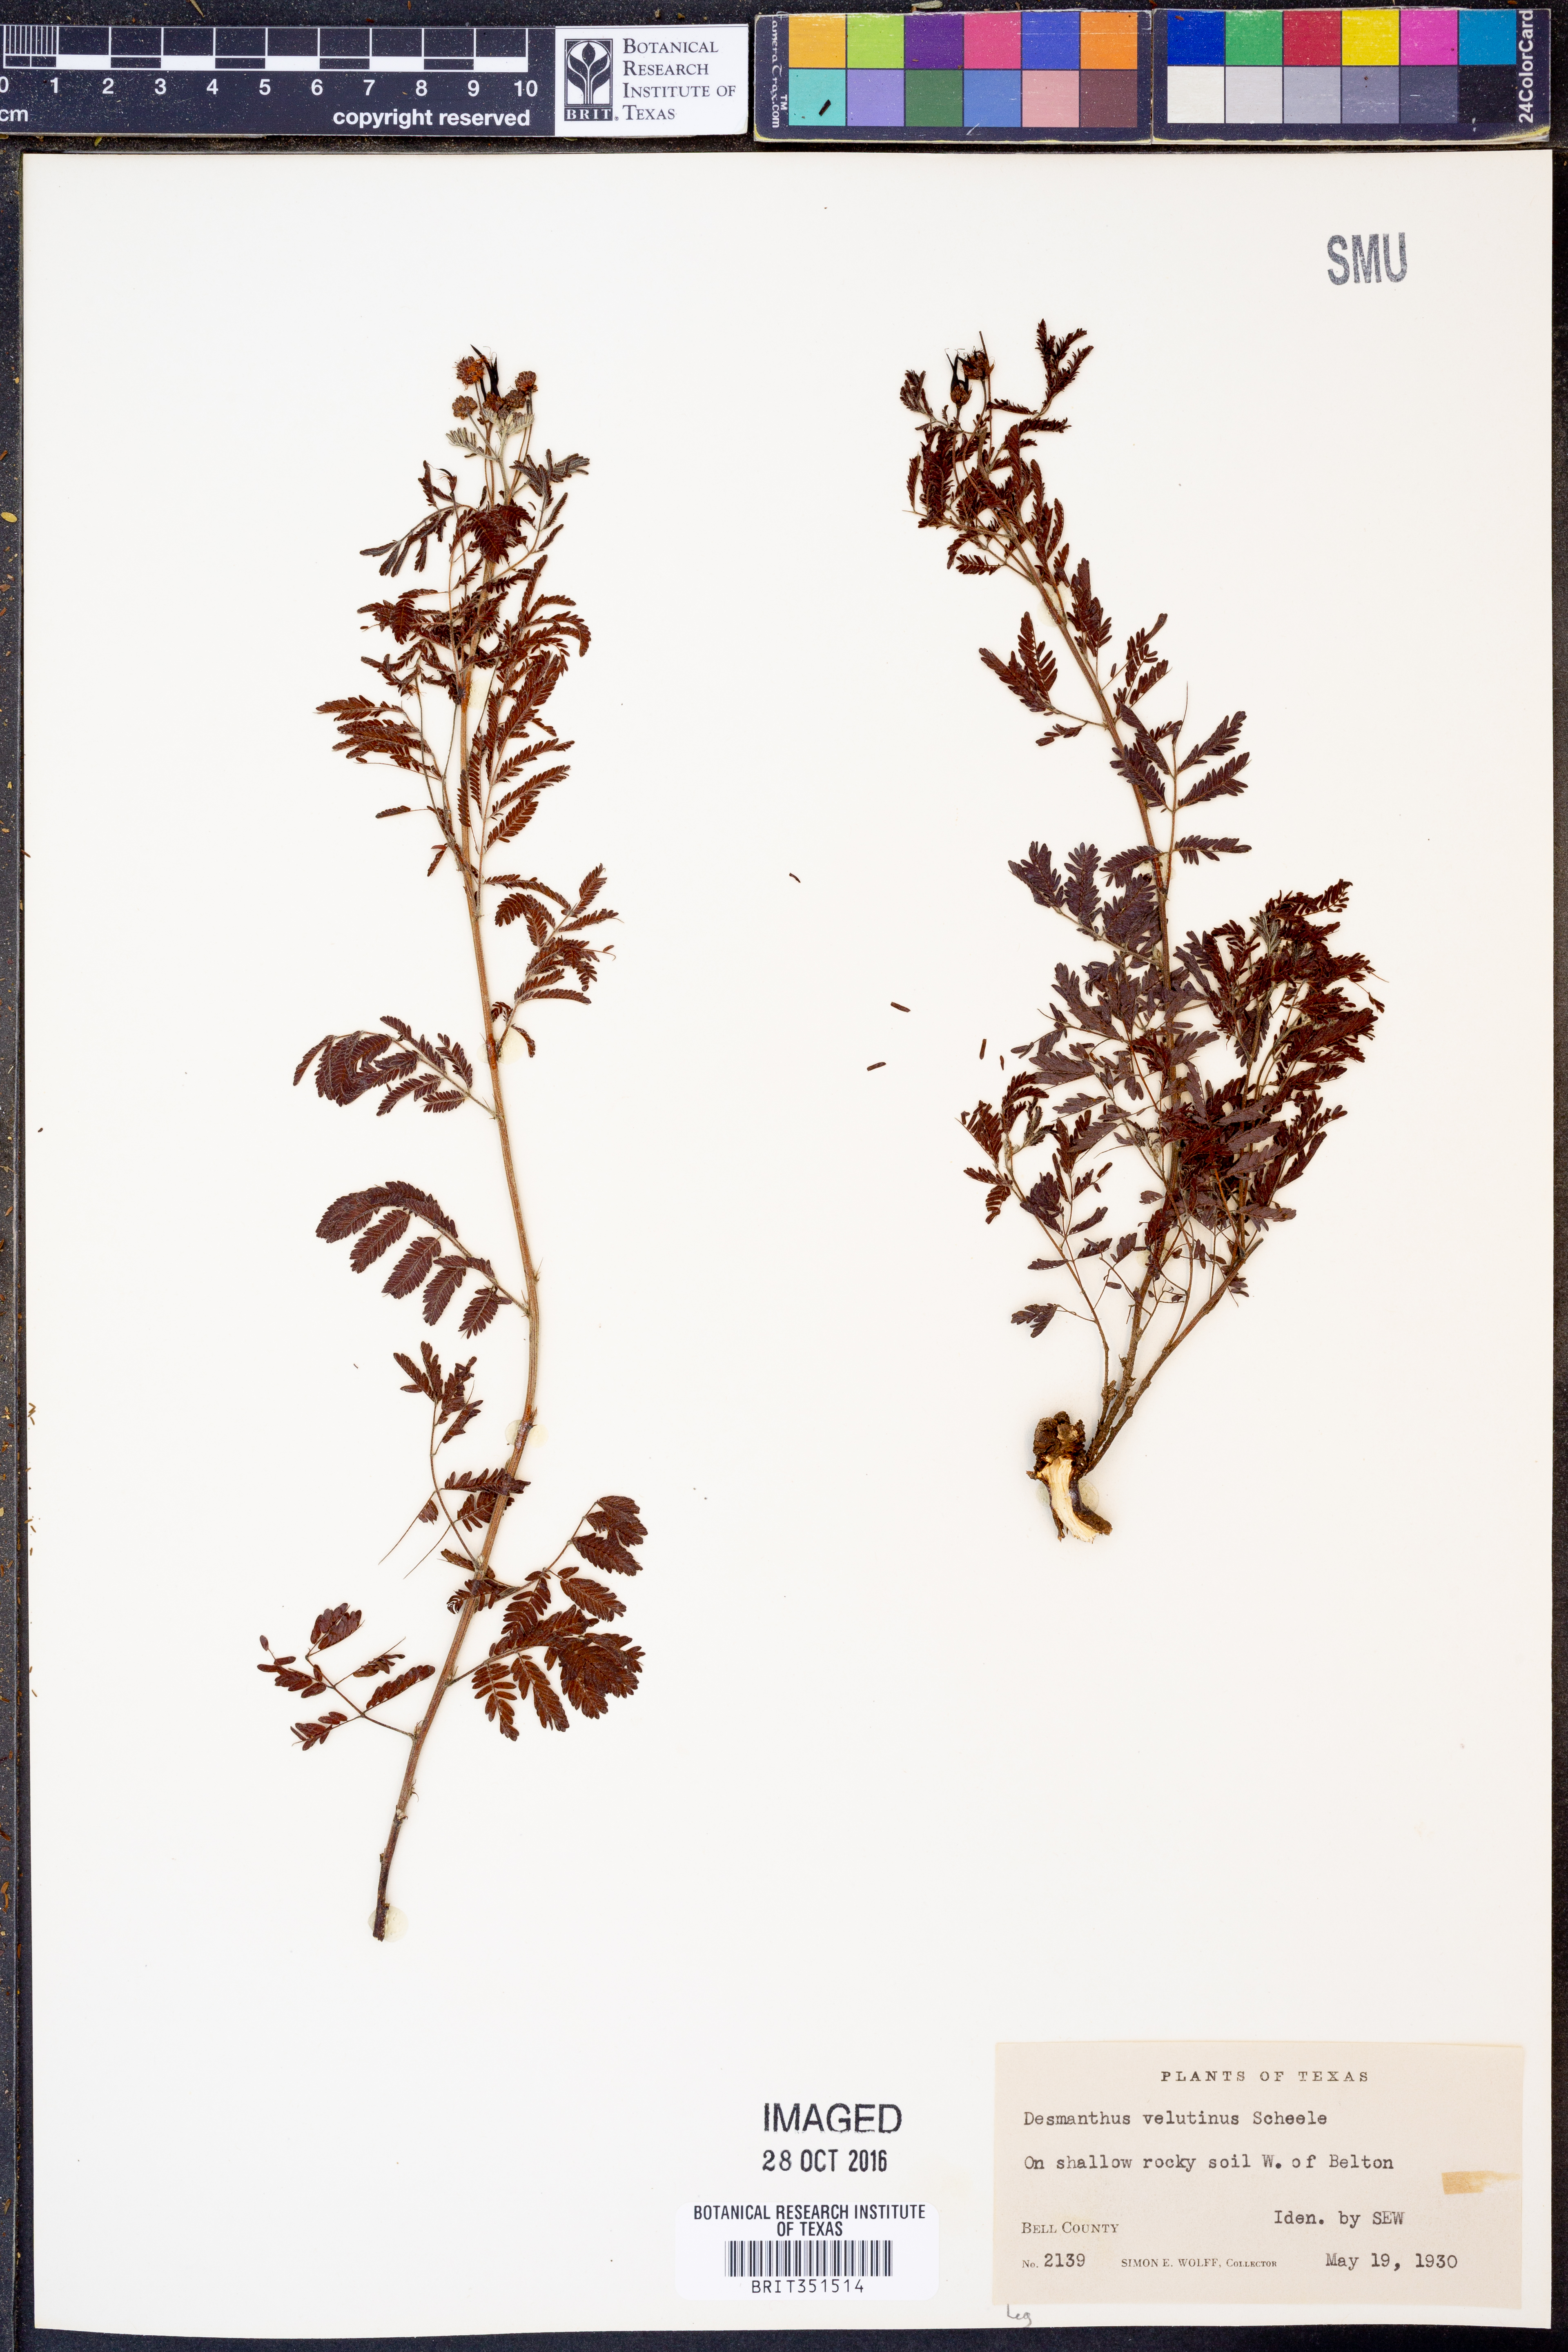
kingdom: Plantae
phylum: Tracheophyta
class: Magnoliopsida
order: Fabales
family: Fabaceae
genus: Desmanthus
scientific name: Desmanthus velutinus
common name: Velvet bundle-flower
